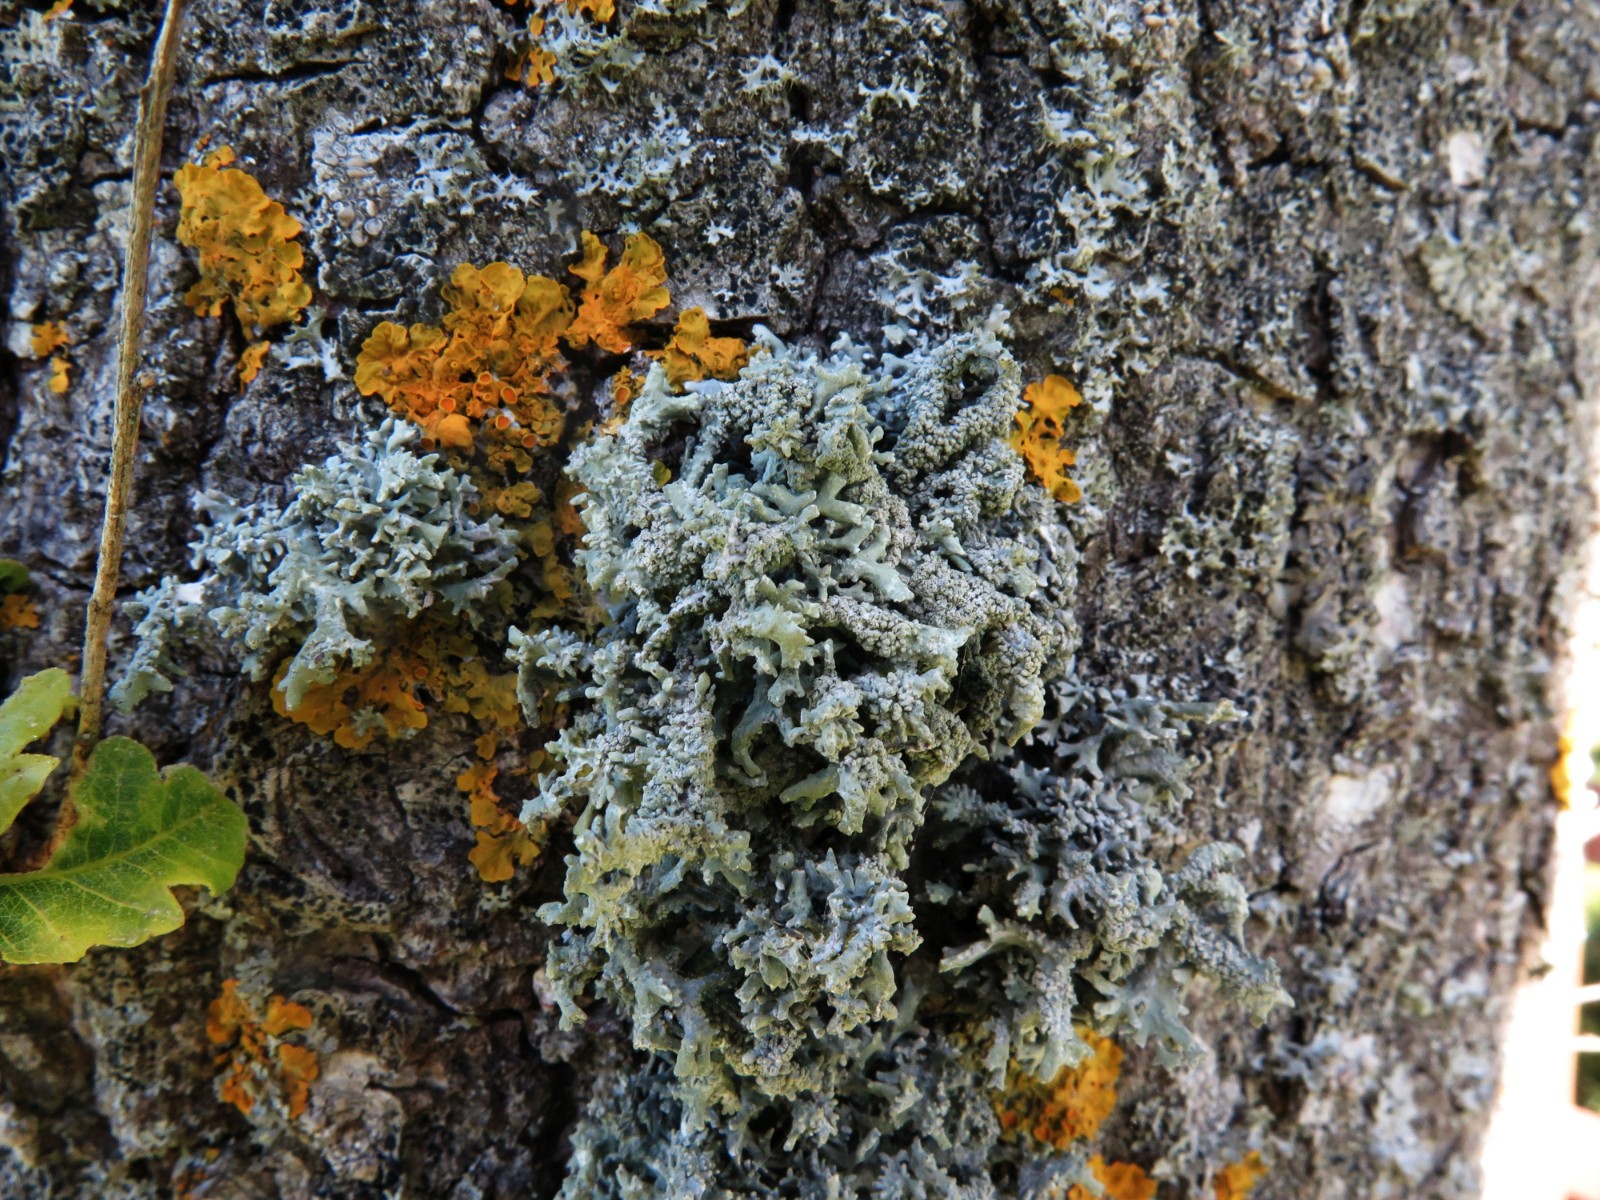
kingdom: Fungi
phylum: Ascomycota
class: Lecanoromycetes
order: Lecanorales
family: Ramalinaceae
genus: Ramalina
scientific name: Ramalina farinacea
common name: melet grenlav
